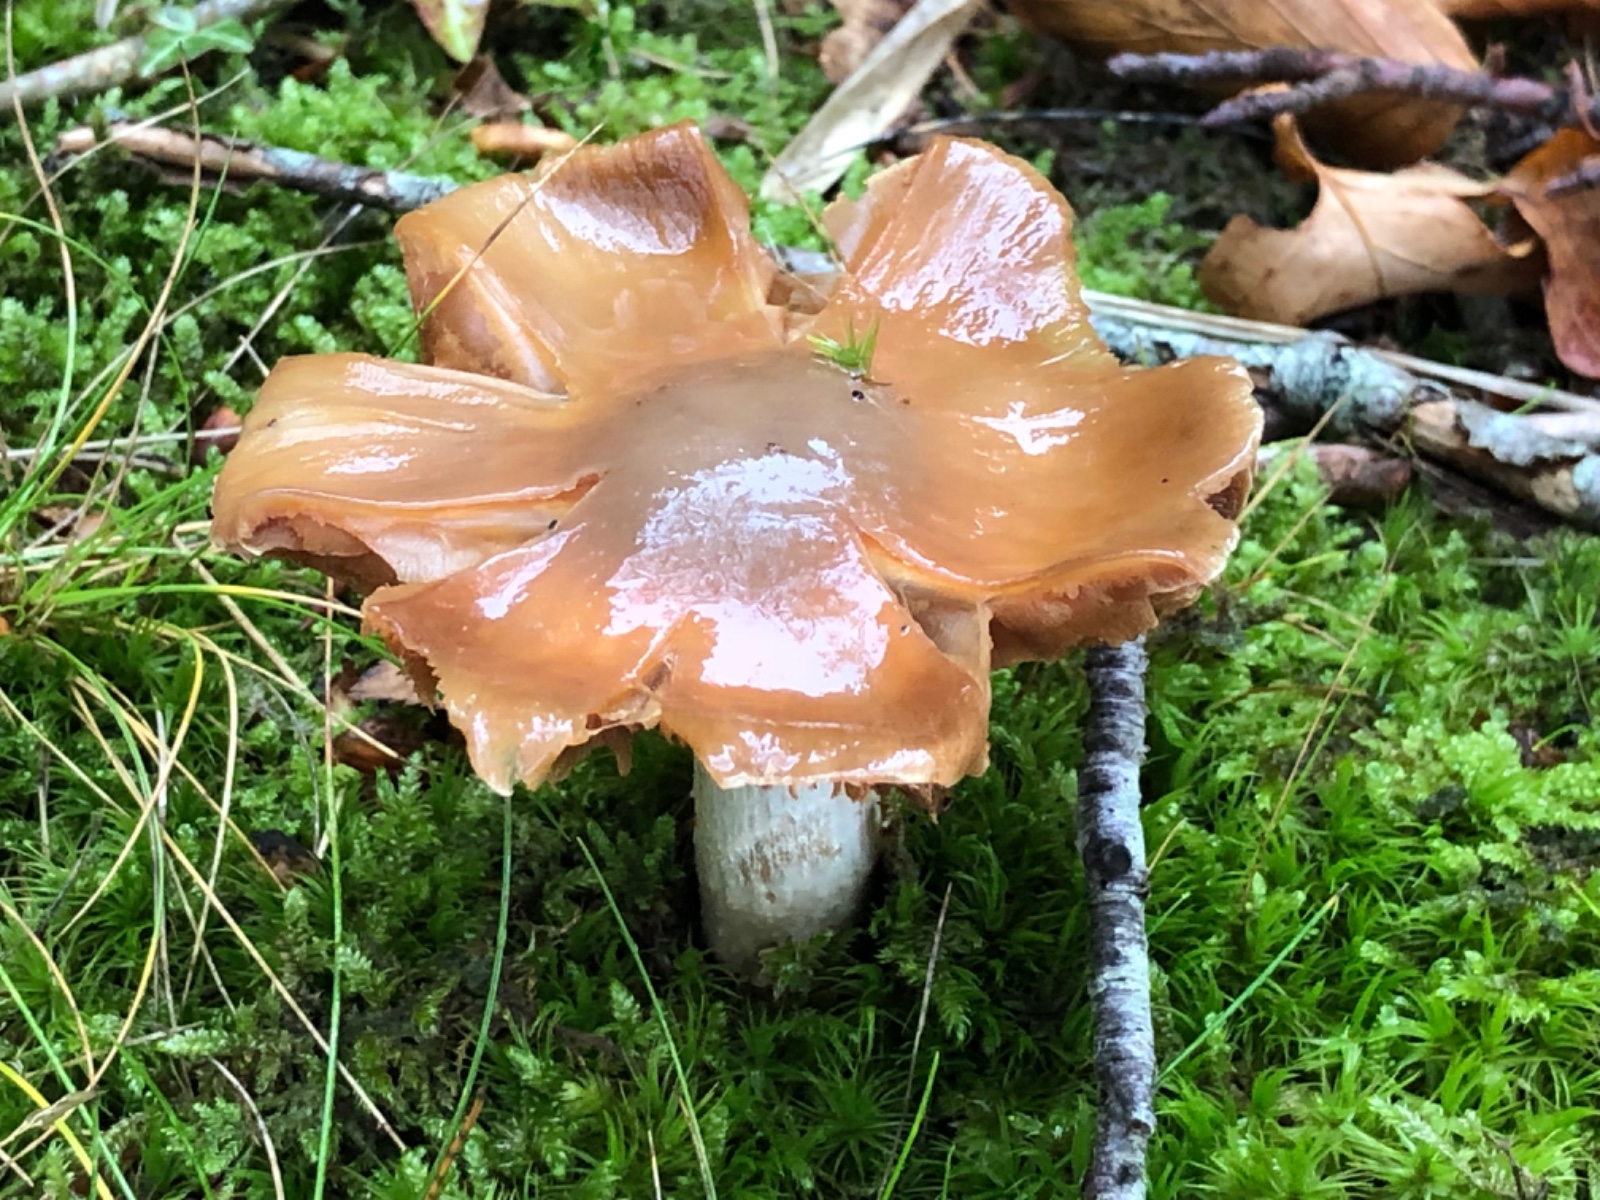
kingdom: Fungi
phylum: Basidiomycota
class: Agaricomycetes
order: Agaricales
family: Cortinariaceae
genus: Cortinarius
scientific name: Cortinarius elatior
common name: høj slørhat
